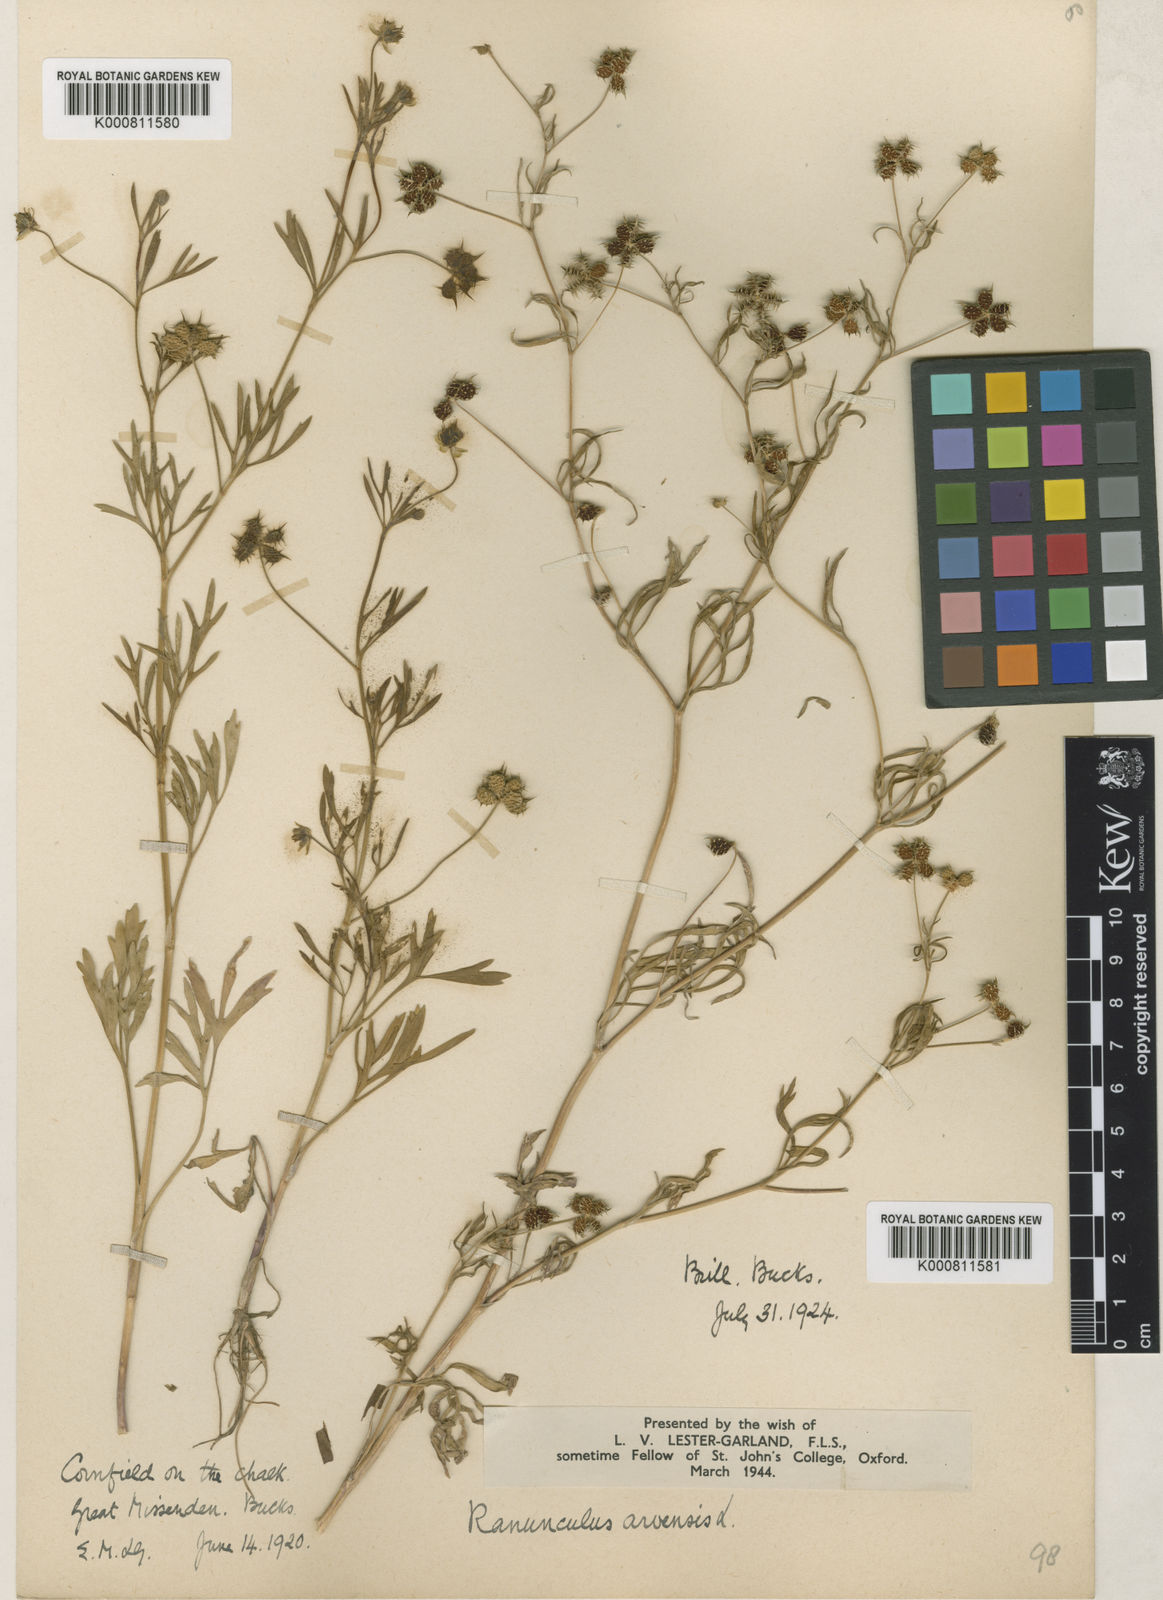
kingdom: Plantae
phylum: Tracheophyta
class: Magnoliopsida
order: Ranunculales
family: Ranunculaceae
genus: Ranunculus
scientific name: Ranunculus arvensis
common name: Corn buttercup
